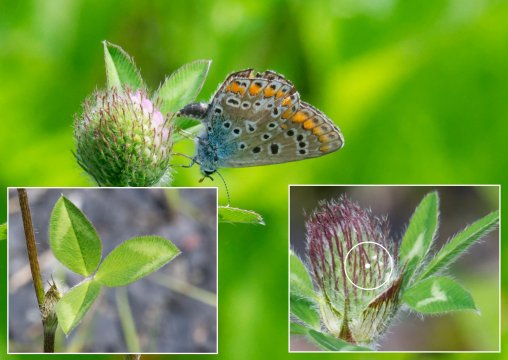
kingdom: Animalia
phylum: Arthropoda
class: Insecta
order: Lepidoptera
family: Lycaenidae
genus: Polyommatus
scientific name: Polyommatus icarus
